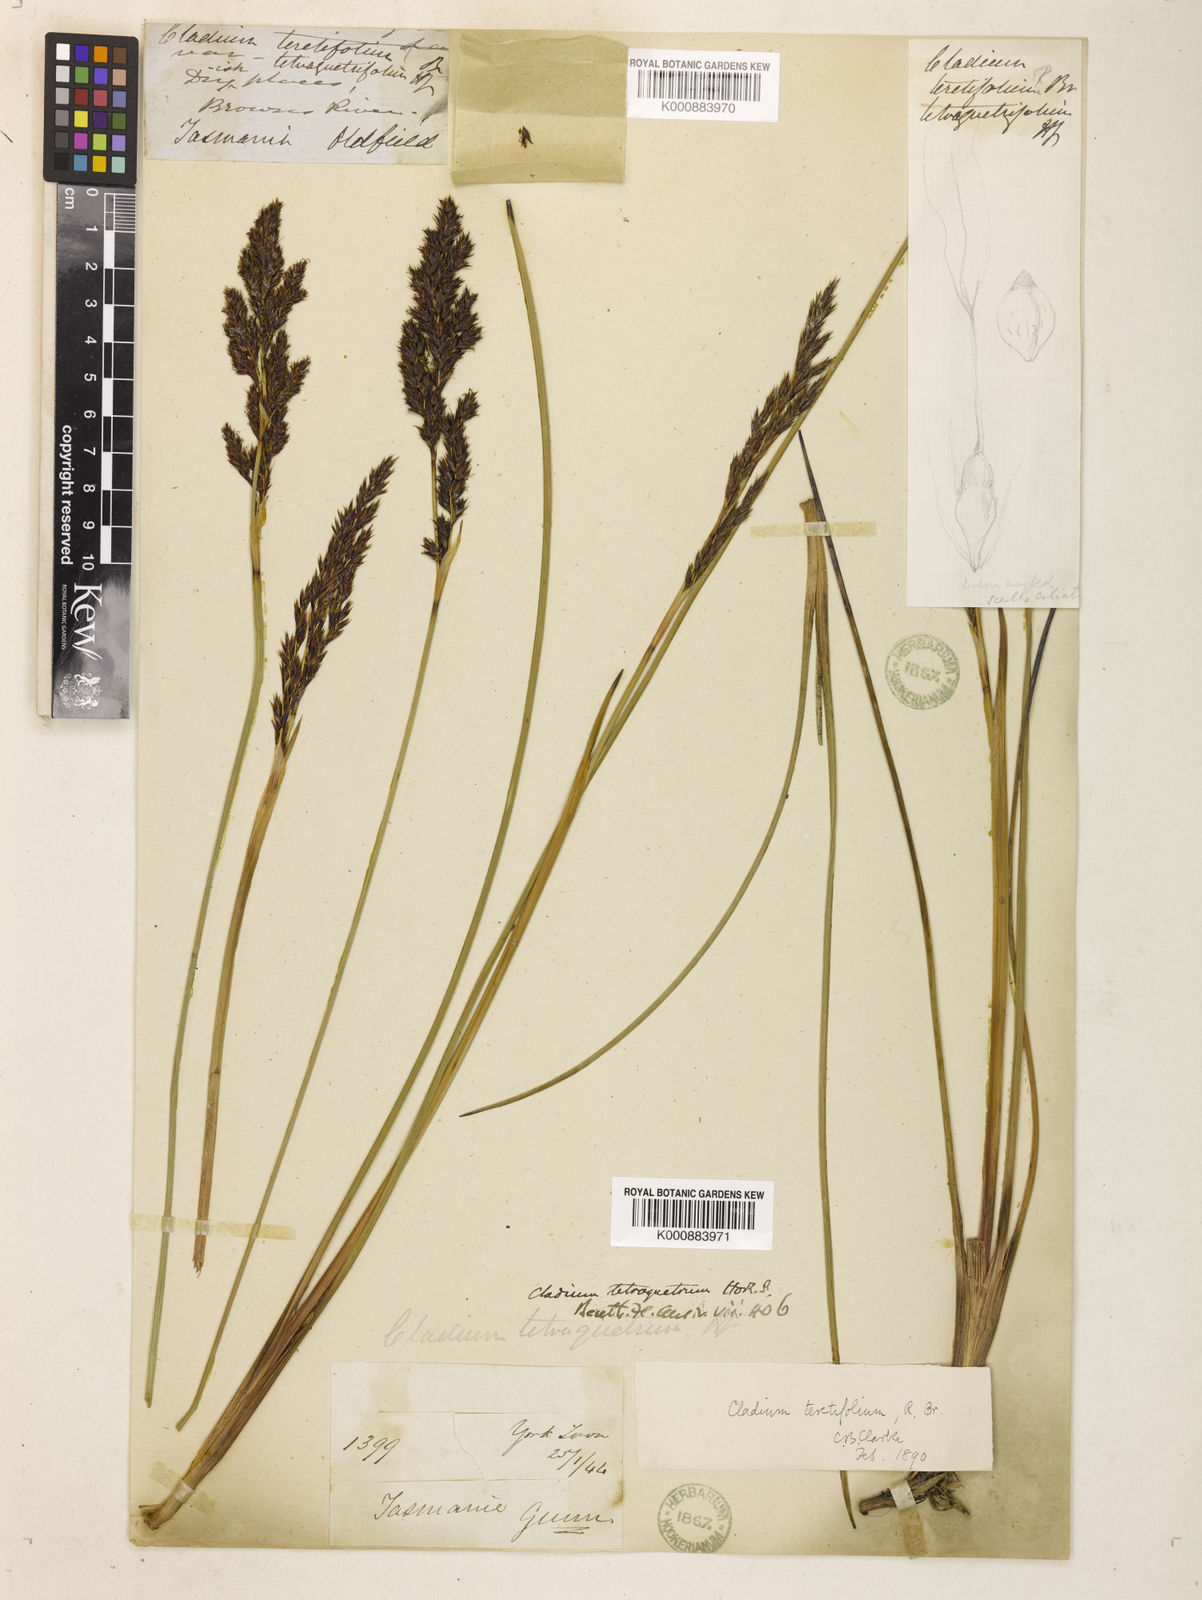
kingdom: Plantae
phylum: Tracheophyta
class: Liliopsida
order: Poales
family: Cyperaceae
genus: Machaerina
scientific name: Machaerina tetragona
